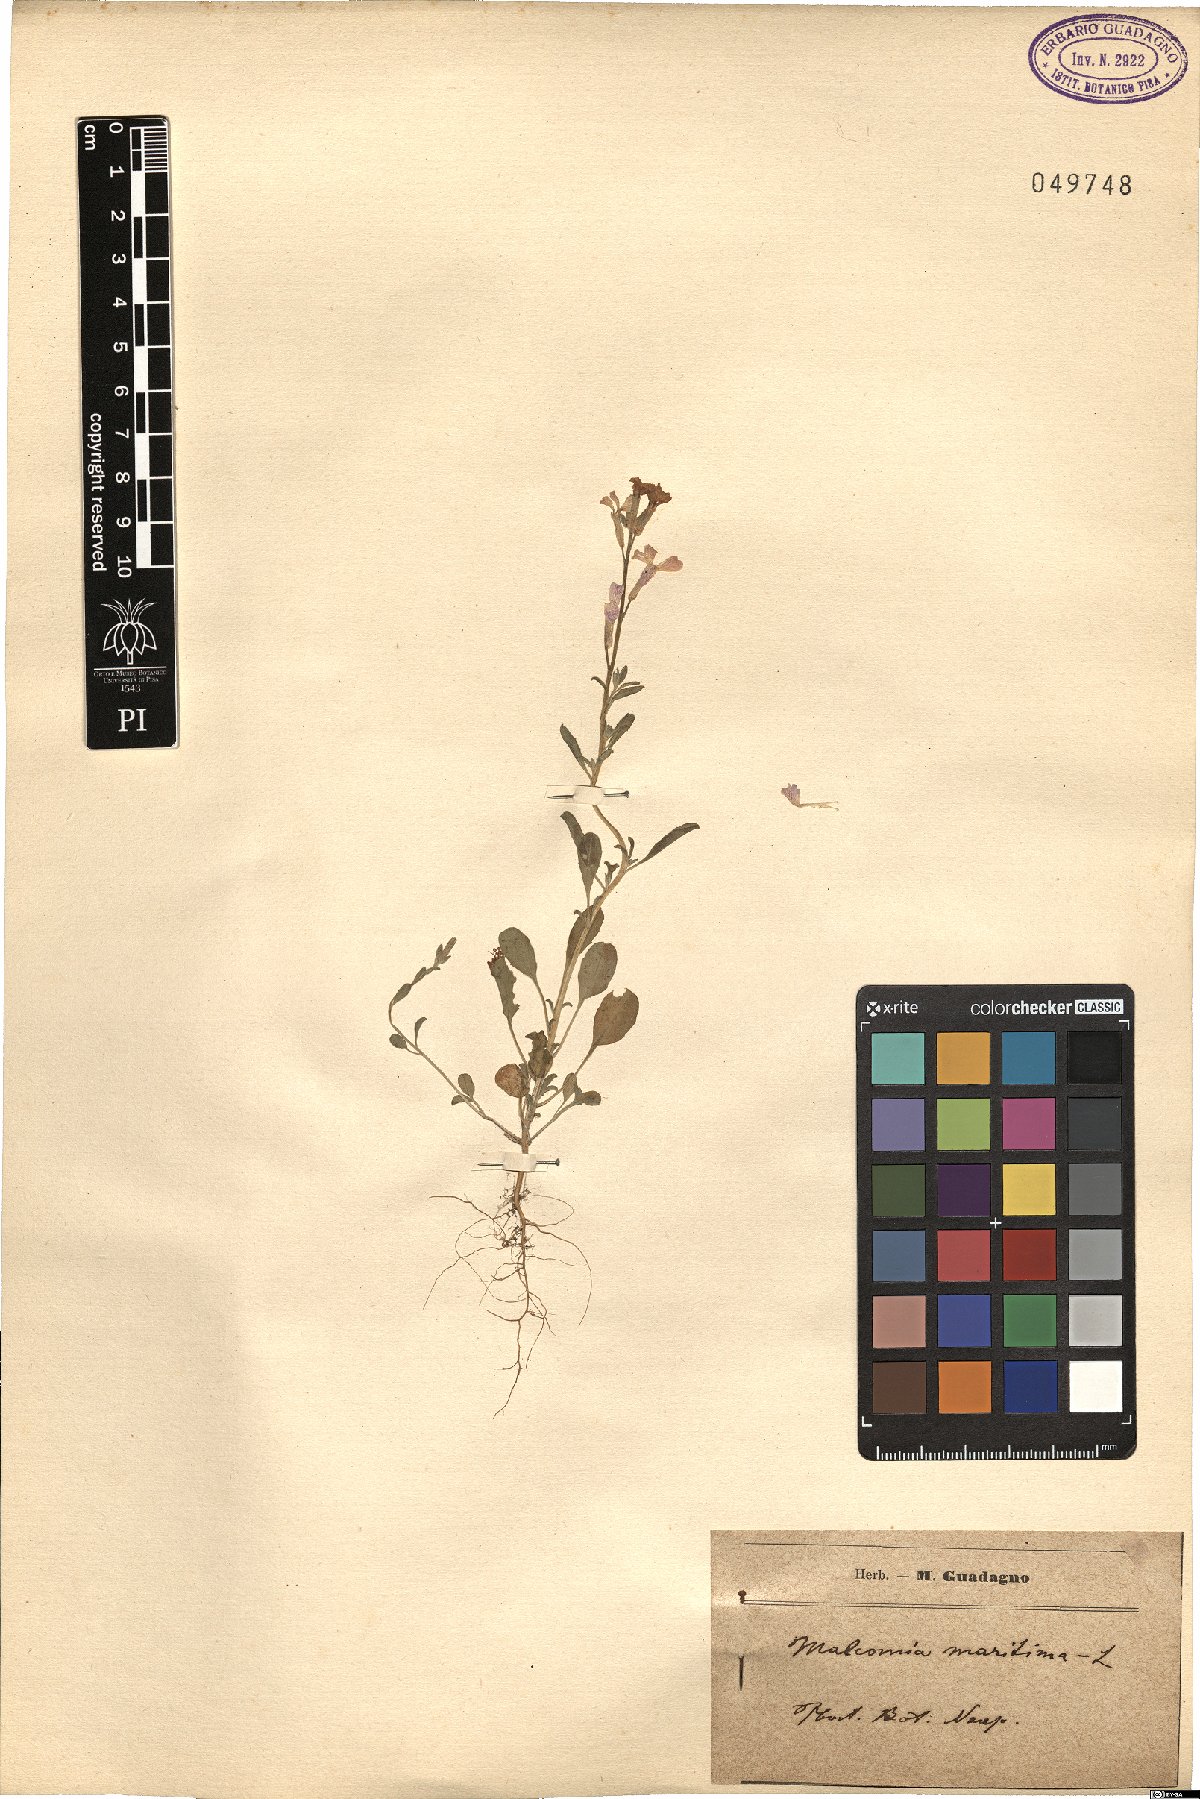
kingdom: Plantae
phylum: Tracheophyta
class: Magnoliopsida
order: Brassicales
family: Brassicaceae
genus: Malcolmia
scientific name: Malcolmia maritima
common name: Virginia stock
